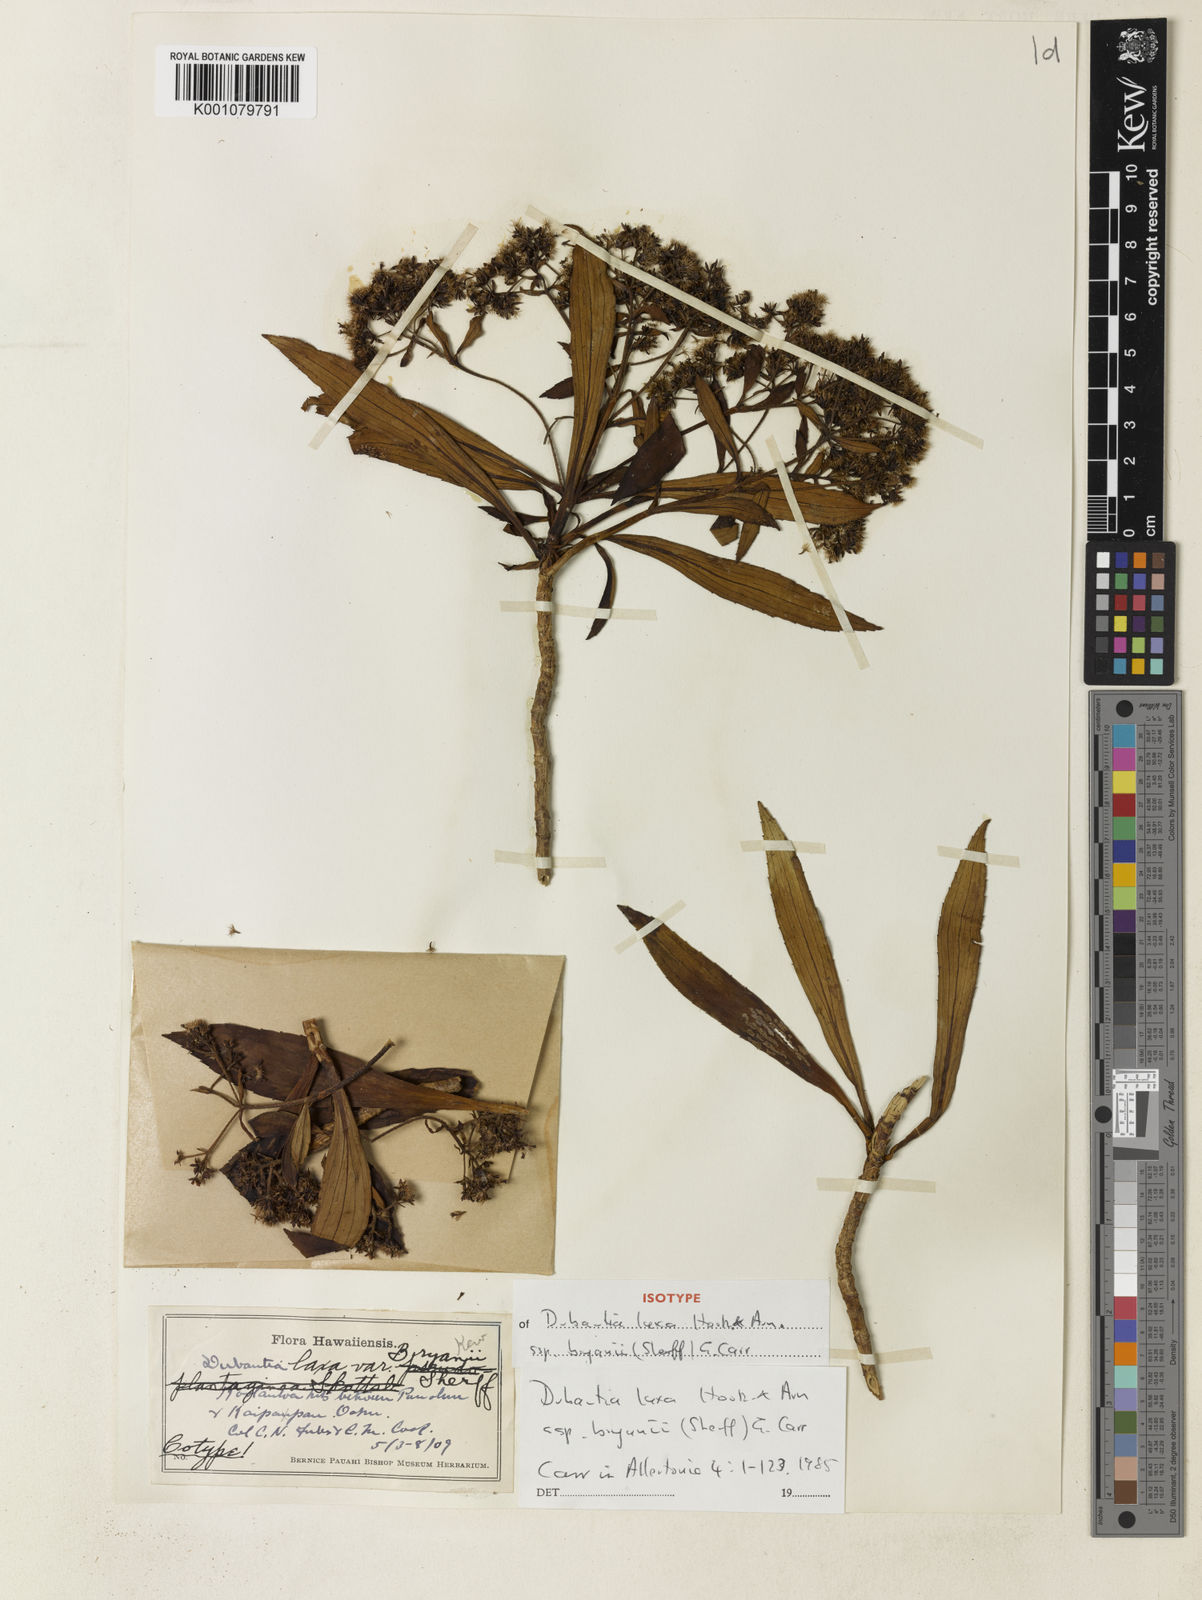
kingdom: Plantae
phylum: Tracheophyta
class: Magnoliopsida
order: Asterales
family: Asteraceae
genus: Dubautia
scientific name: Dubautia laxa
